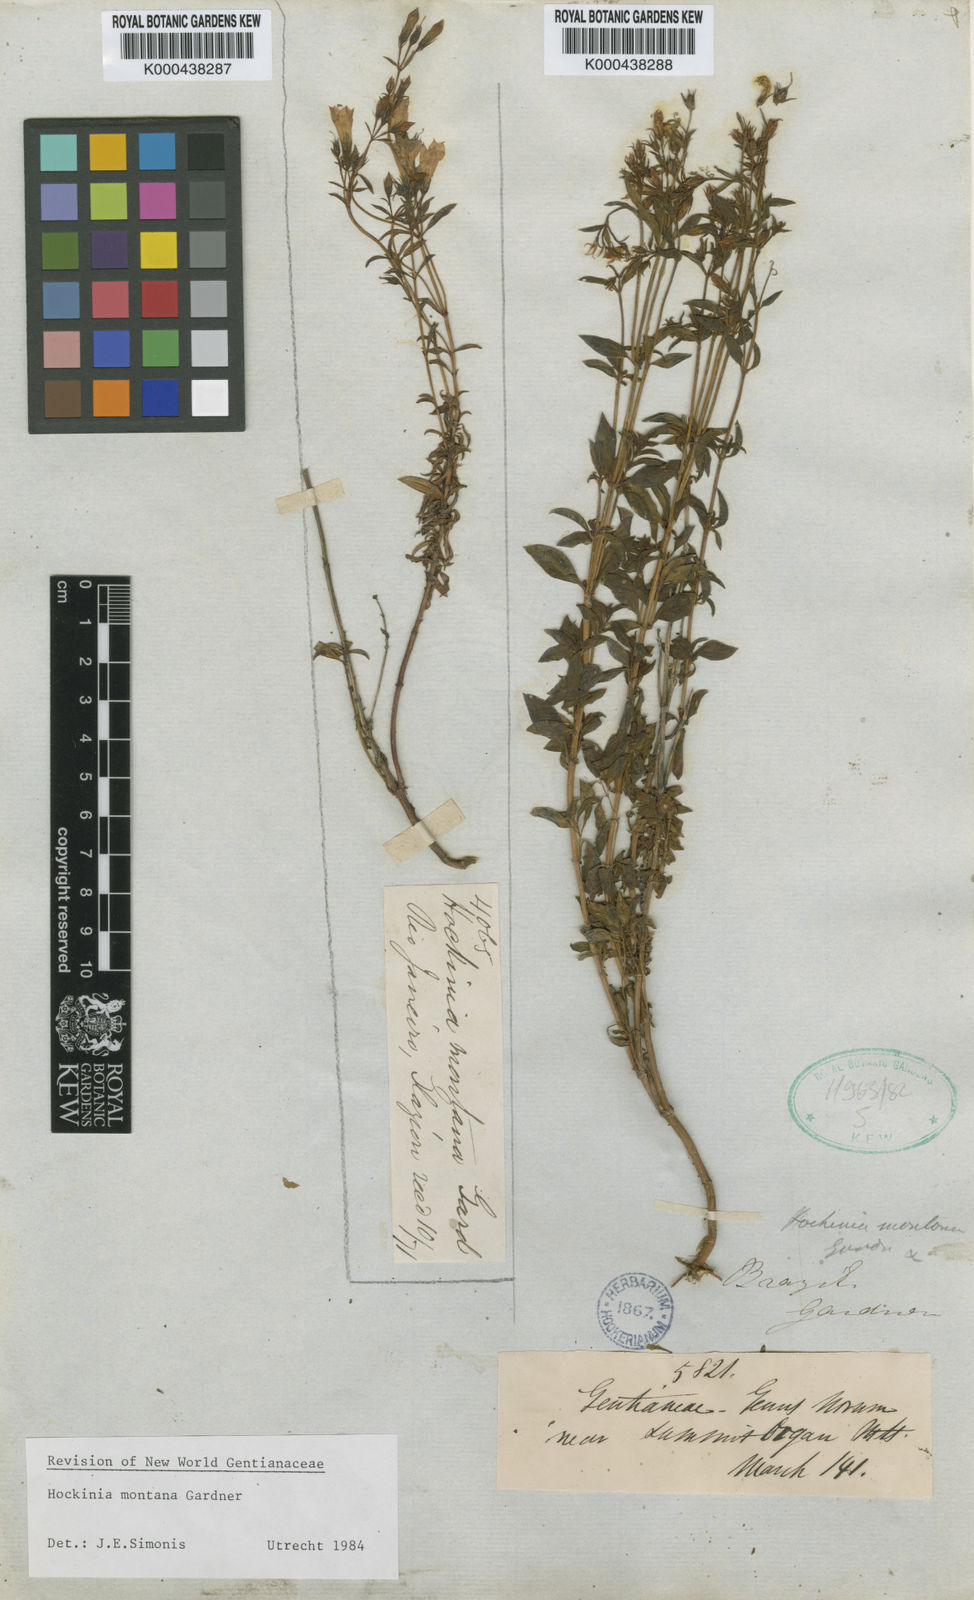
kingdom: Plantae
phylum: Tracheophyta
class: Magnoliopsida
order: Gentianales
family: Gentianaceae
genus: Hockinia
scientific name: Hockinia montana
